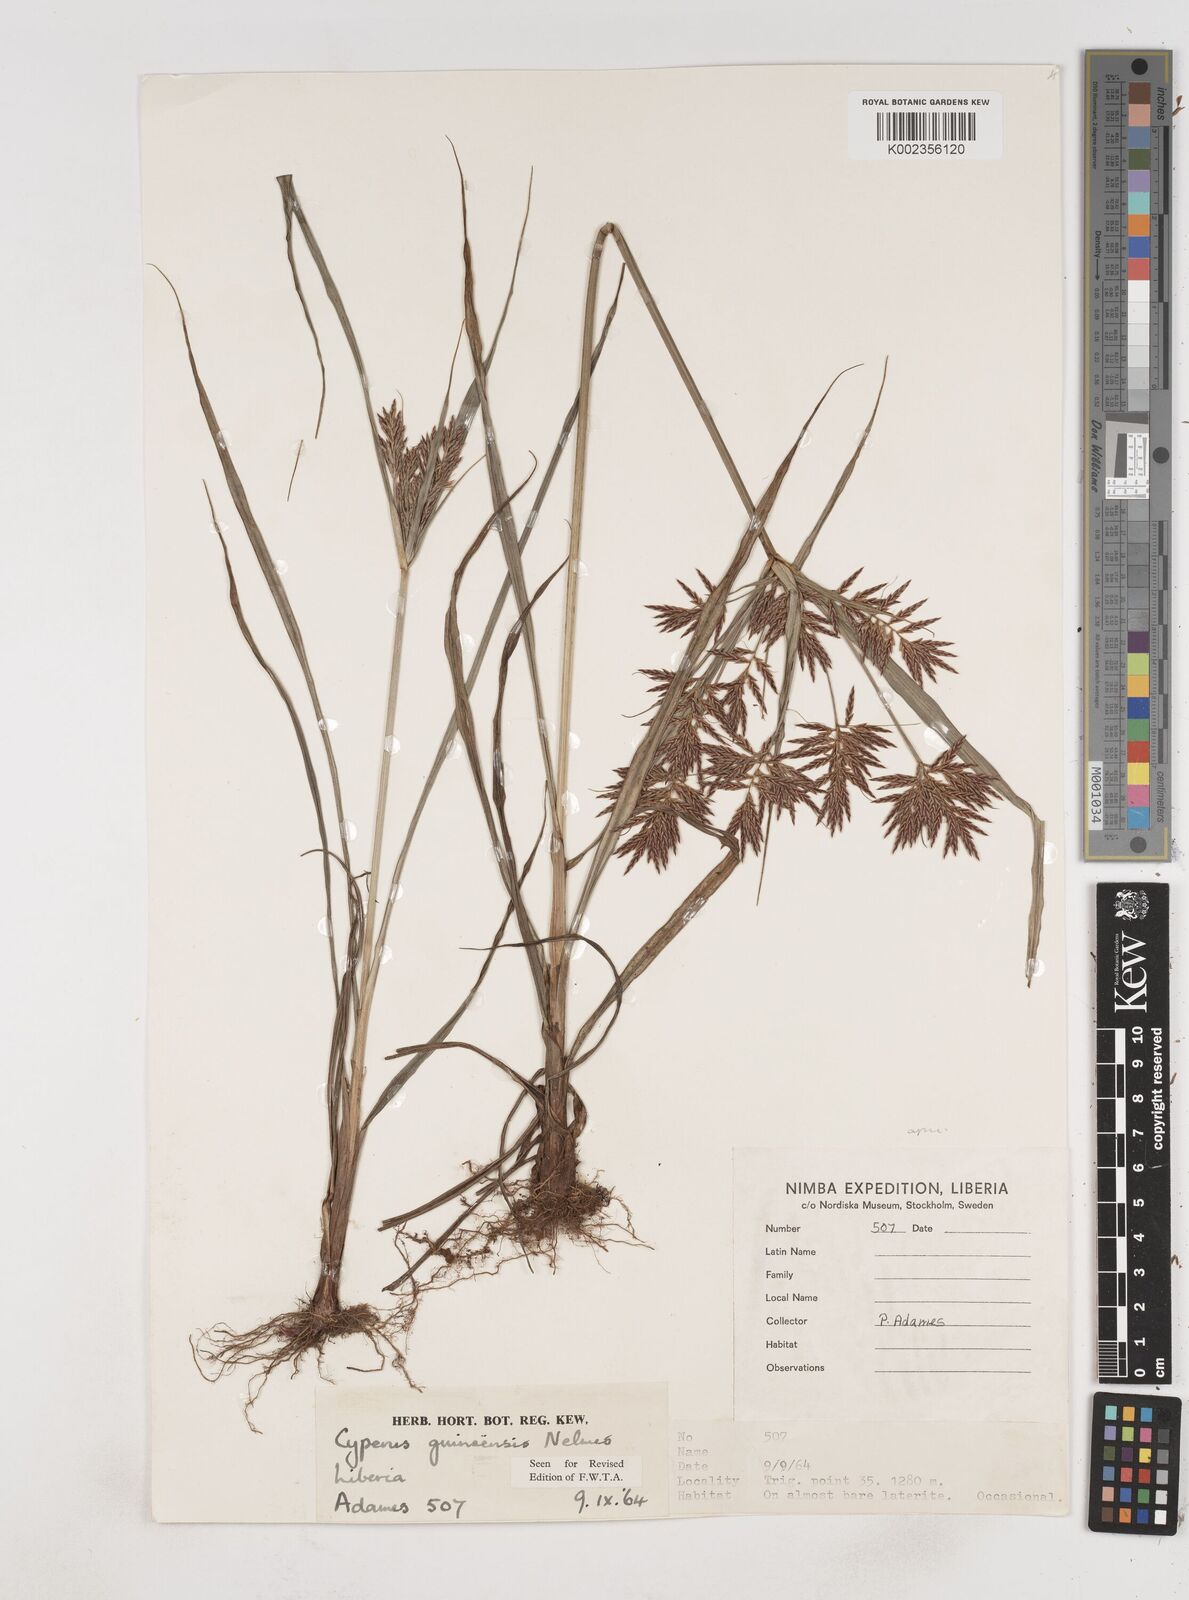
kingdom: Plantae
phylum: Tracheophyta
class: Liliopsida
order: Poales
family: Cyperaceae
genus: Cyperus
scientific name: Cyperus tenuiculmis
